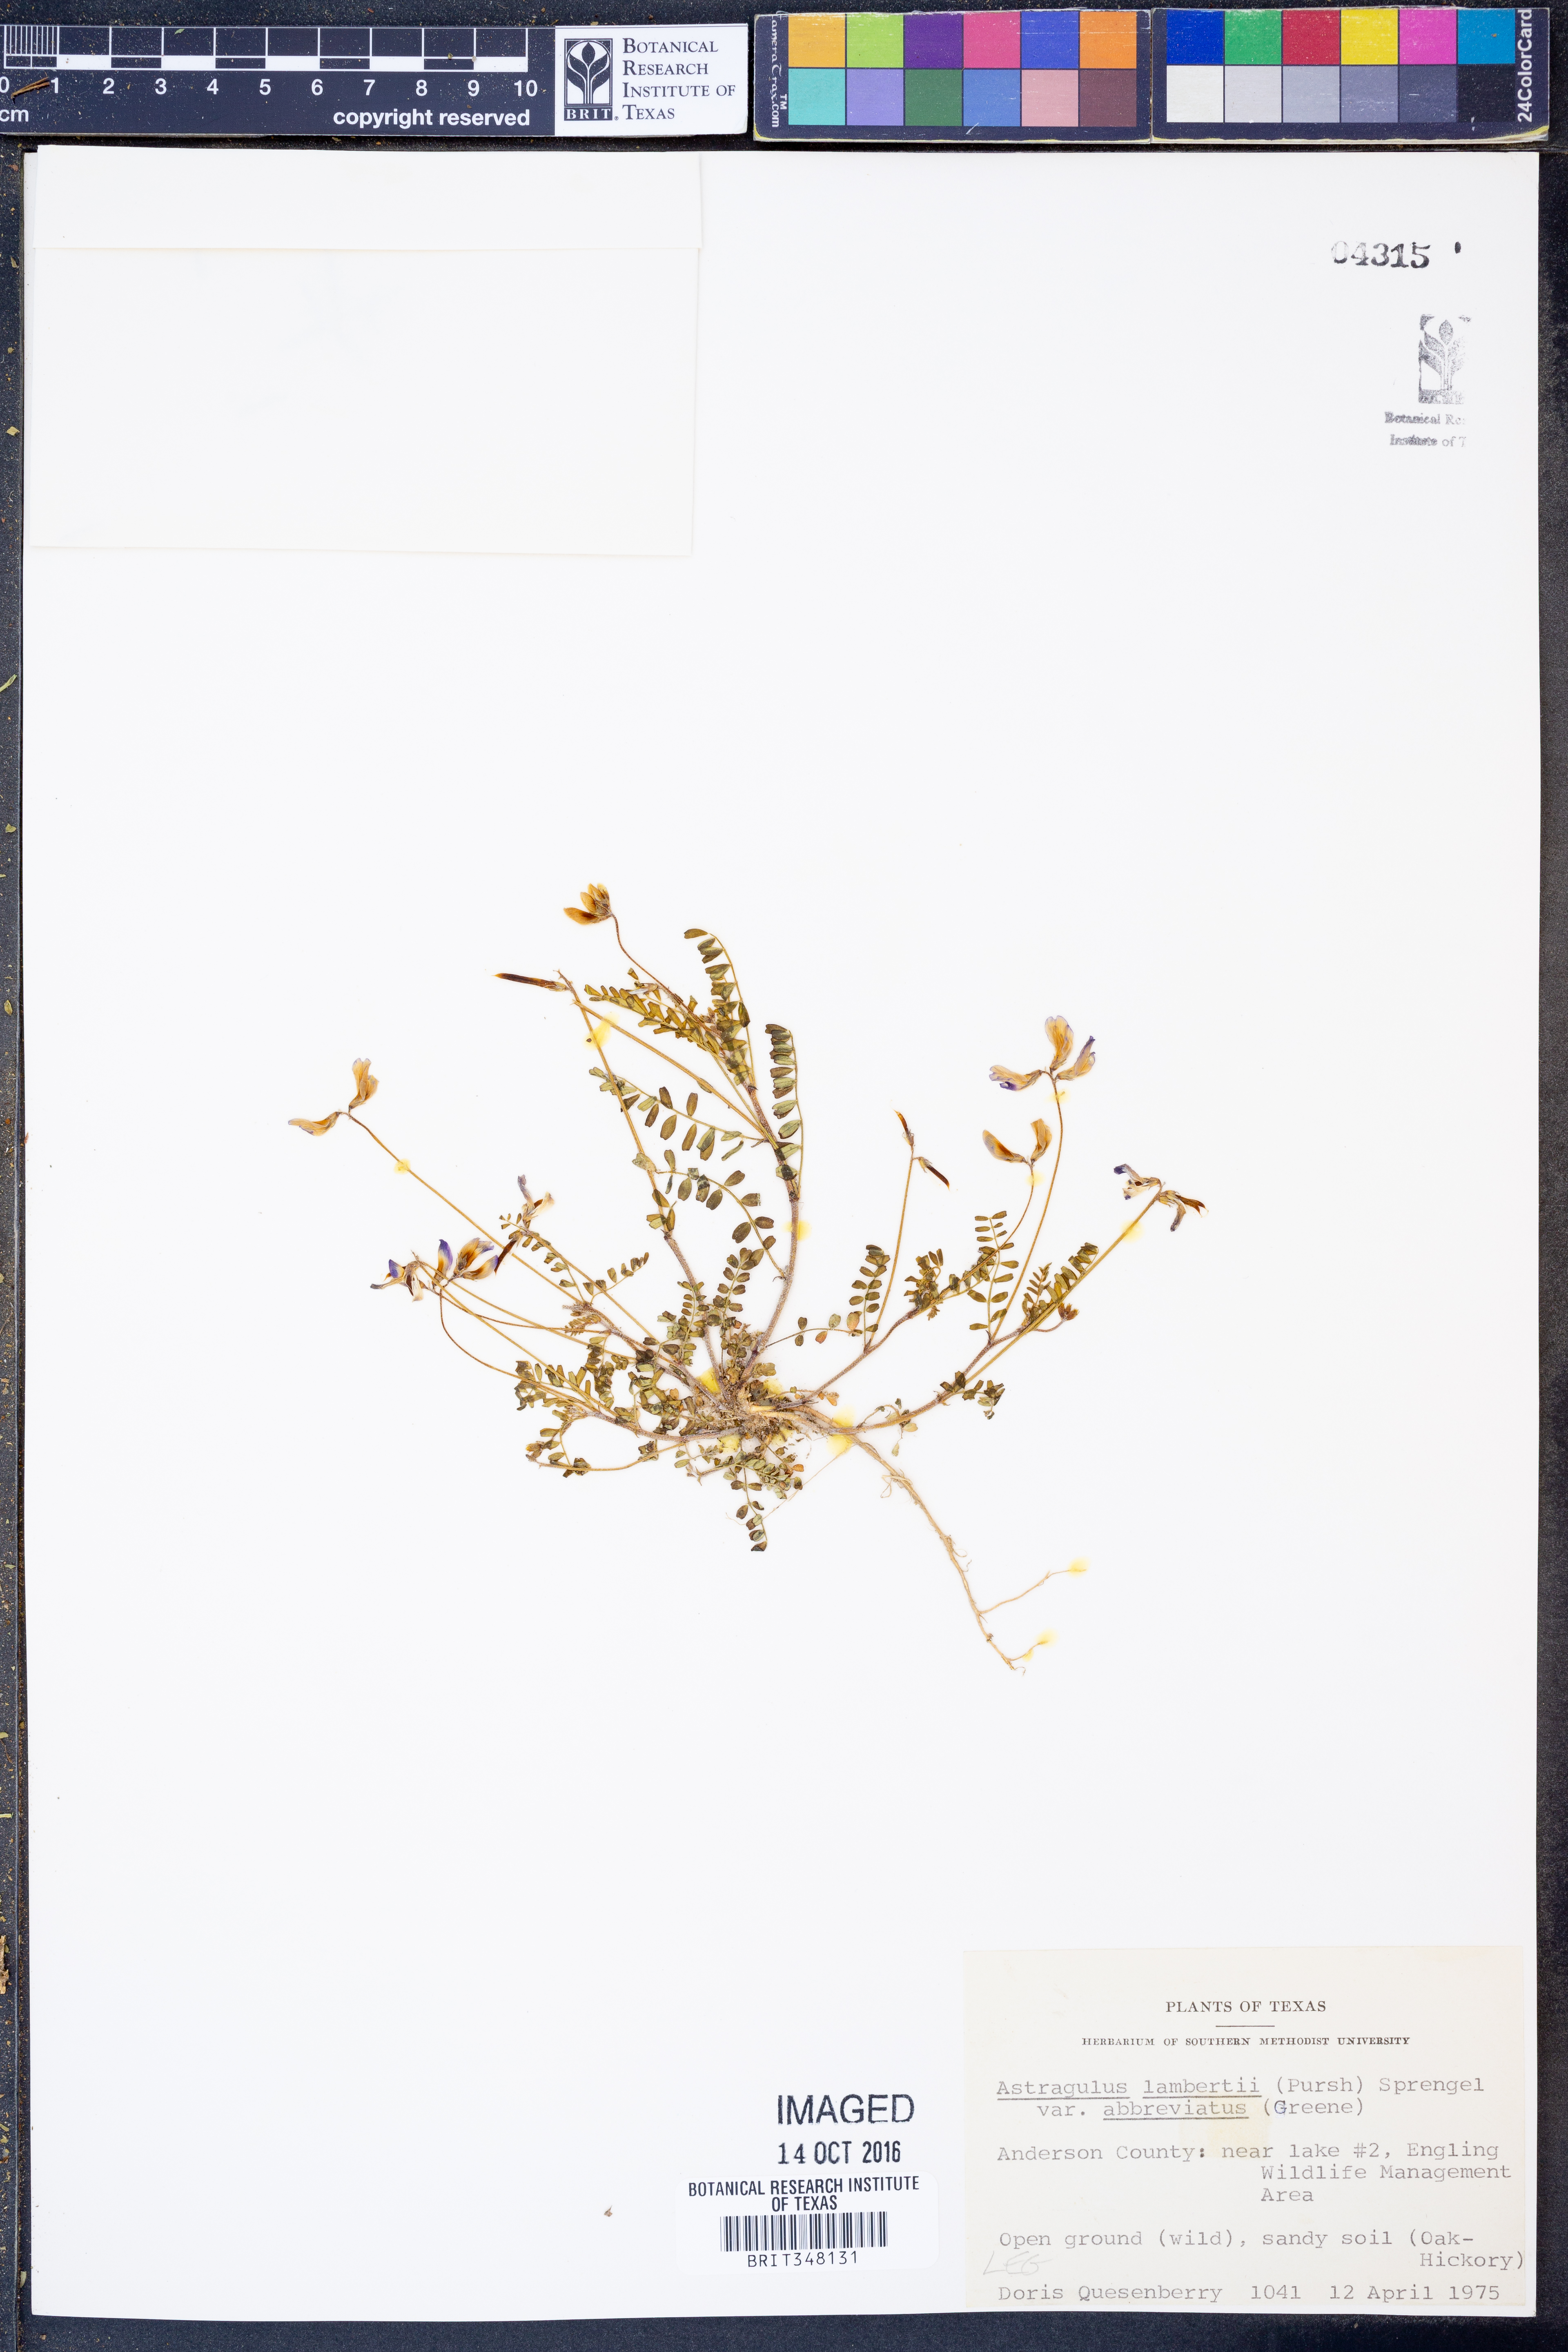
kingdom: Plantae
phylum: Tracheophyta
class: Magnoliopsida
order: Fabales
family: Fabaceae
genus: Oxytropis
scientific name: Oxytropis lambertii
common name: Purple locoweed
